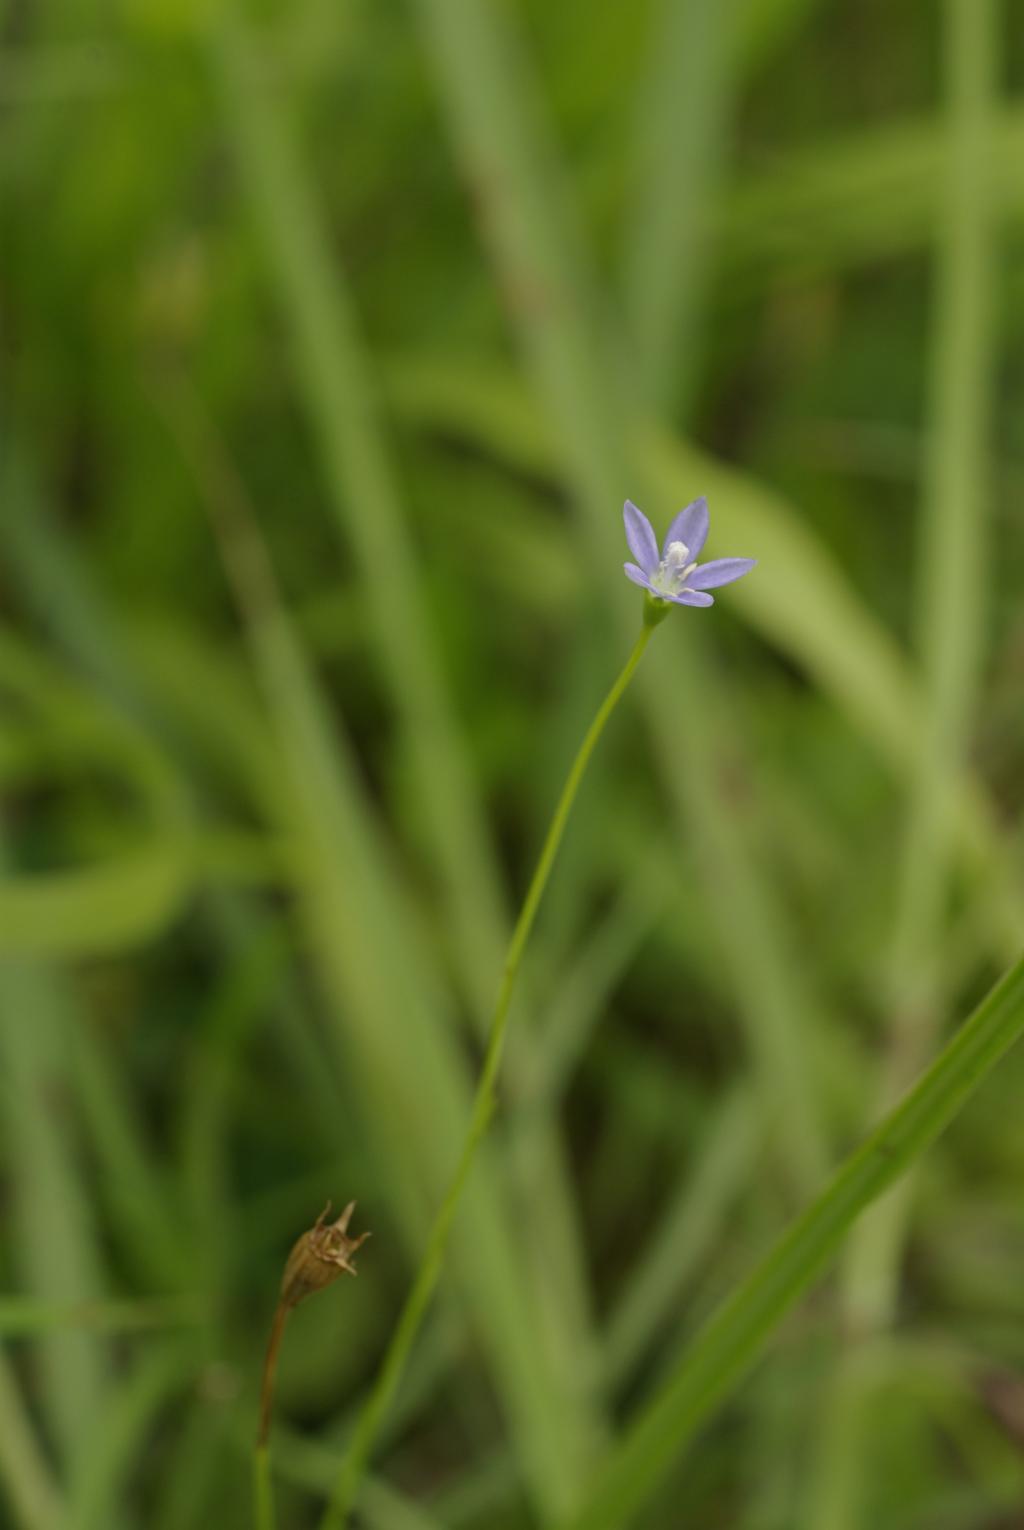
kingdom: Plantae
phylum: Tracheophyta
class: Magnoliopsida
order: Asterales
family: Campanulaceae
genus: Wahlenbergia
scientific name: Wahlenbergia marginata
